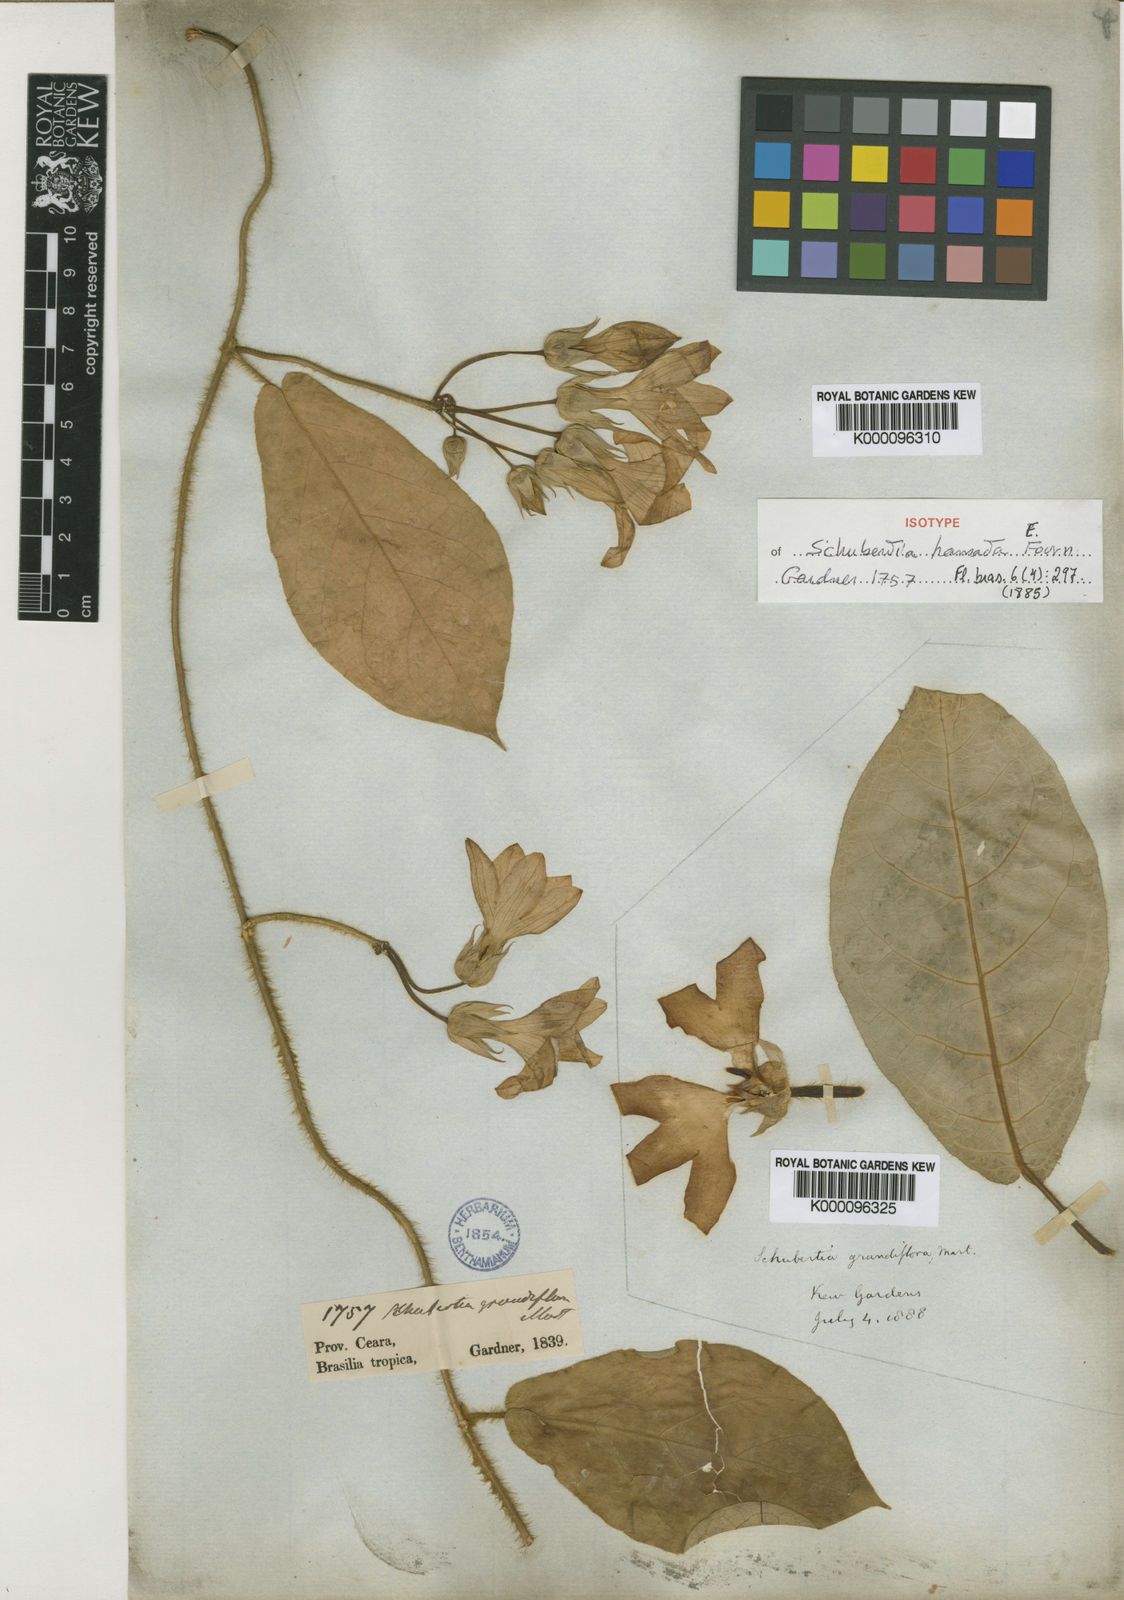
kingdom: Plantae
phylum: Tracheophyta
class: Magnoliopsida
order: Gentianales
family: Apocynaceae
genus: Macroscepis
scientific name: Macroscepis grandiflora
